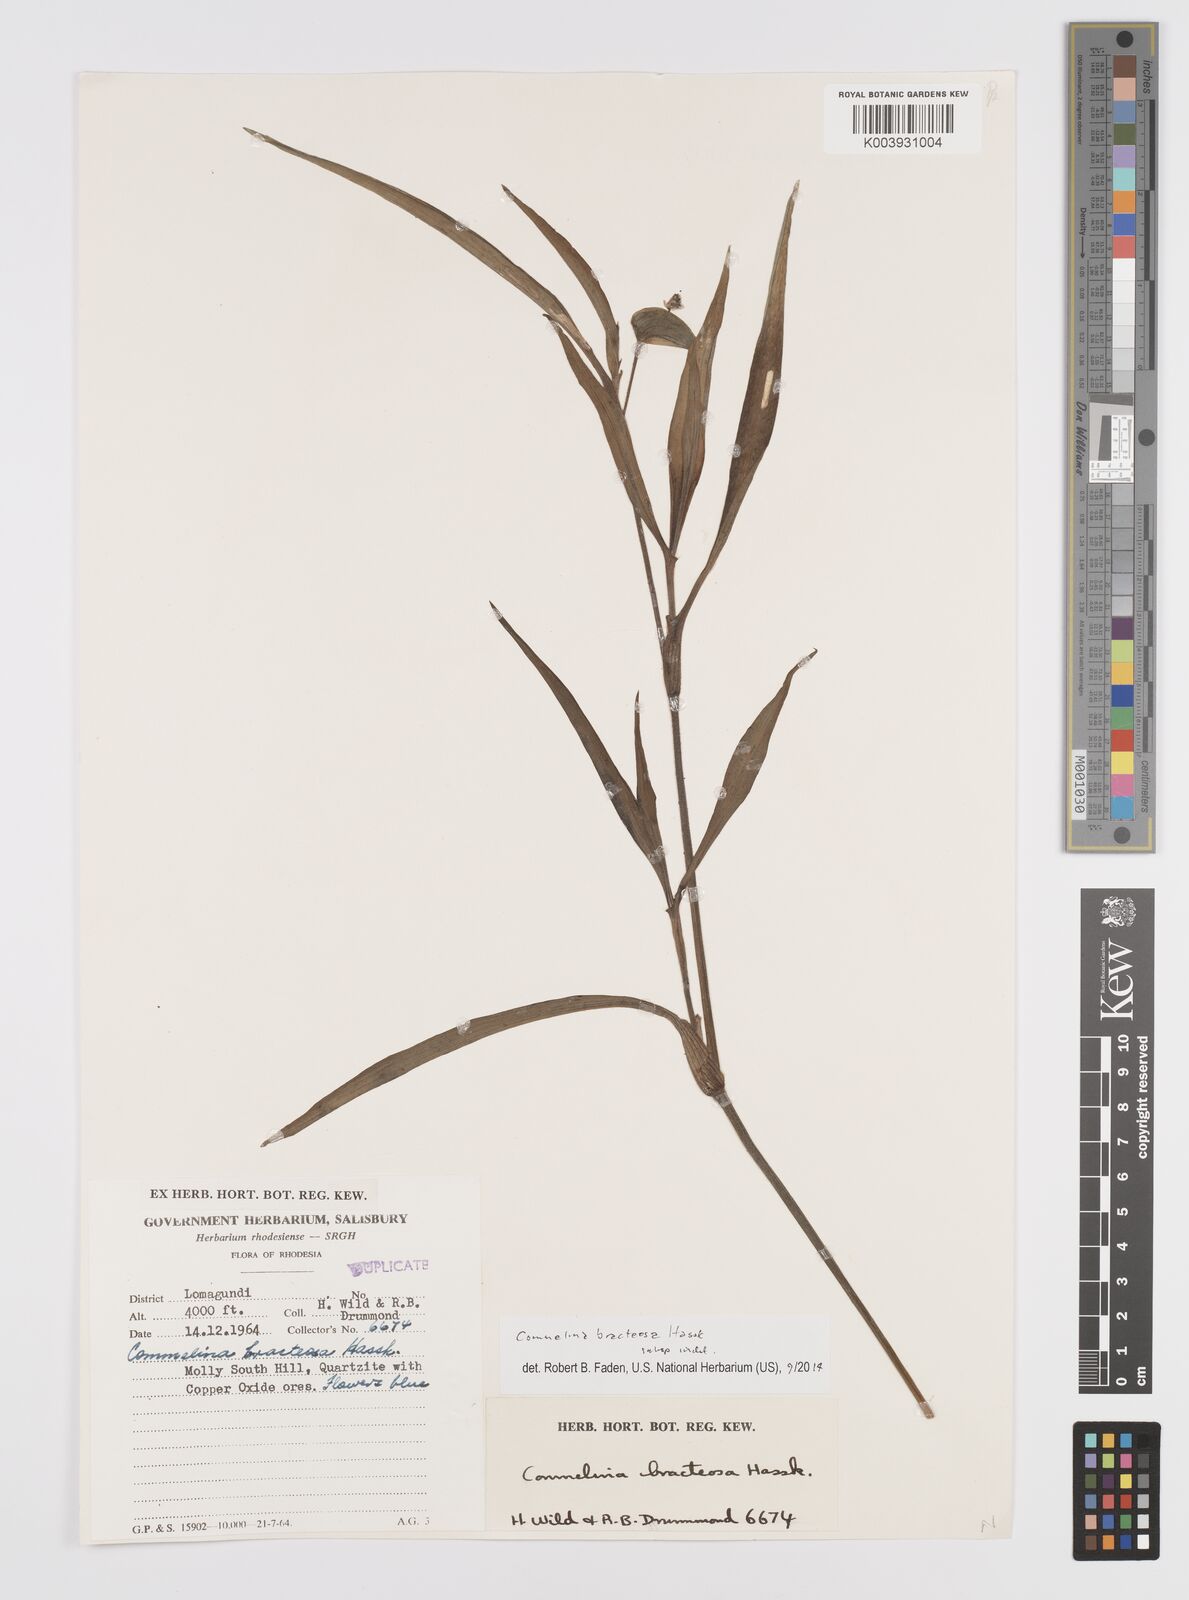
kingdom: Plantae
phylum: Tracheophyta
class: Liliopsida
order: Commelinales
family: Commelinaceae
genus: Commelina
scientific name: Commelina bracteosa
